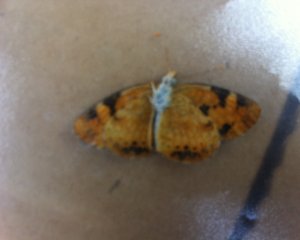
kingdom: Animalia
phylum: Arthropoda
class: Insecta
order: Lepidoptera
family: Nymphalidae
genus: Phyciodes
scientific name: Phyciodes tharos
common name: Northern Crescent
